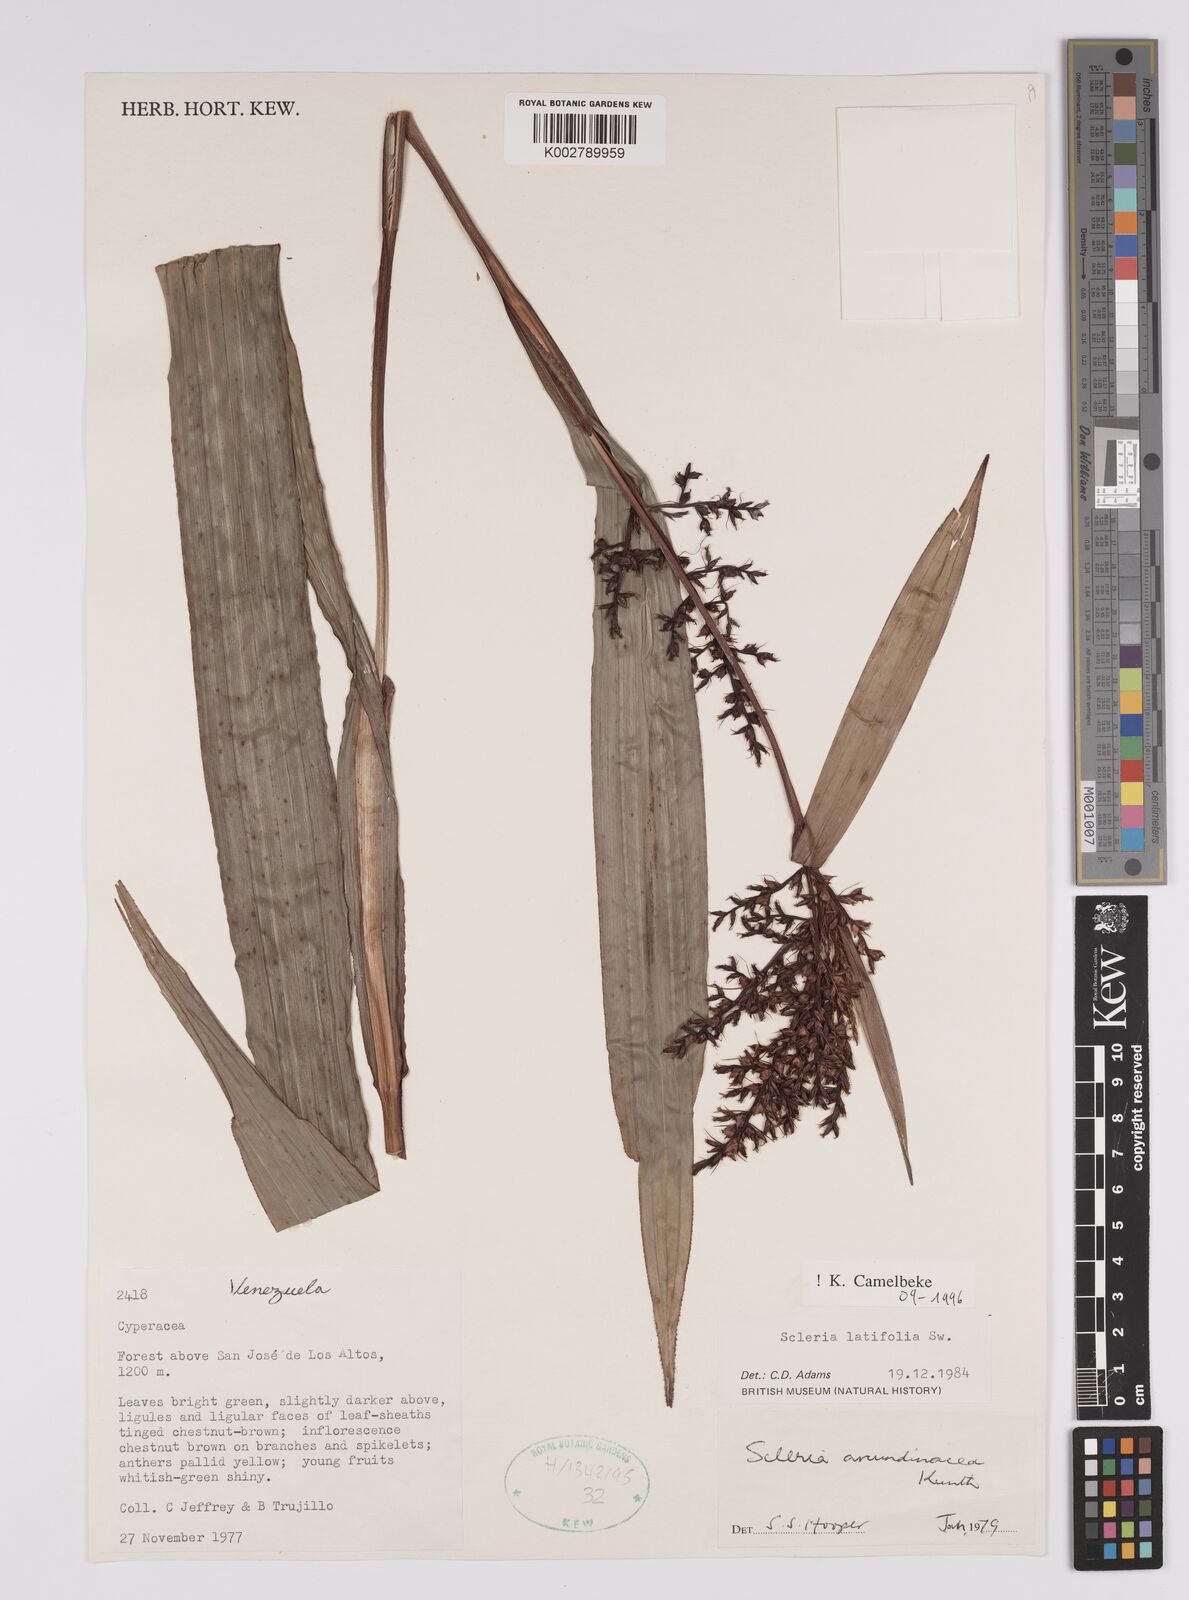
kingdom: Plantae
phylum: Tracheophyta
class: Liliopsida
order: Poales
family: Cyperaceae
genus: Scleria
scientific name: Scleria latifolia
